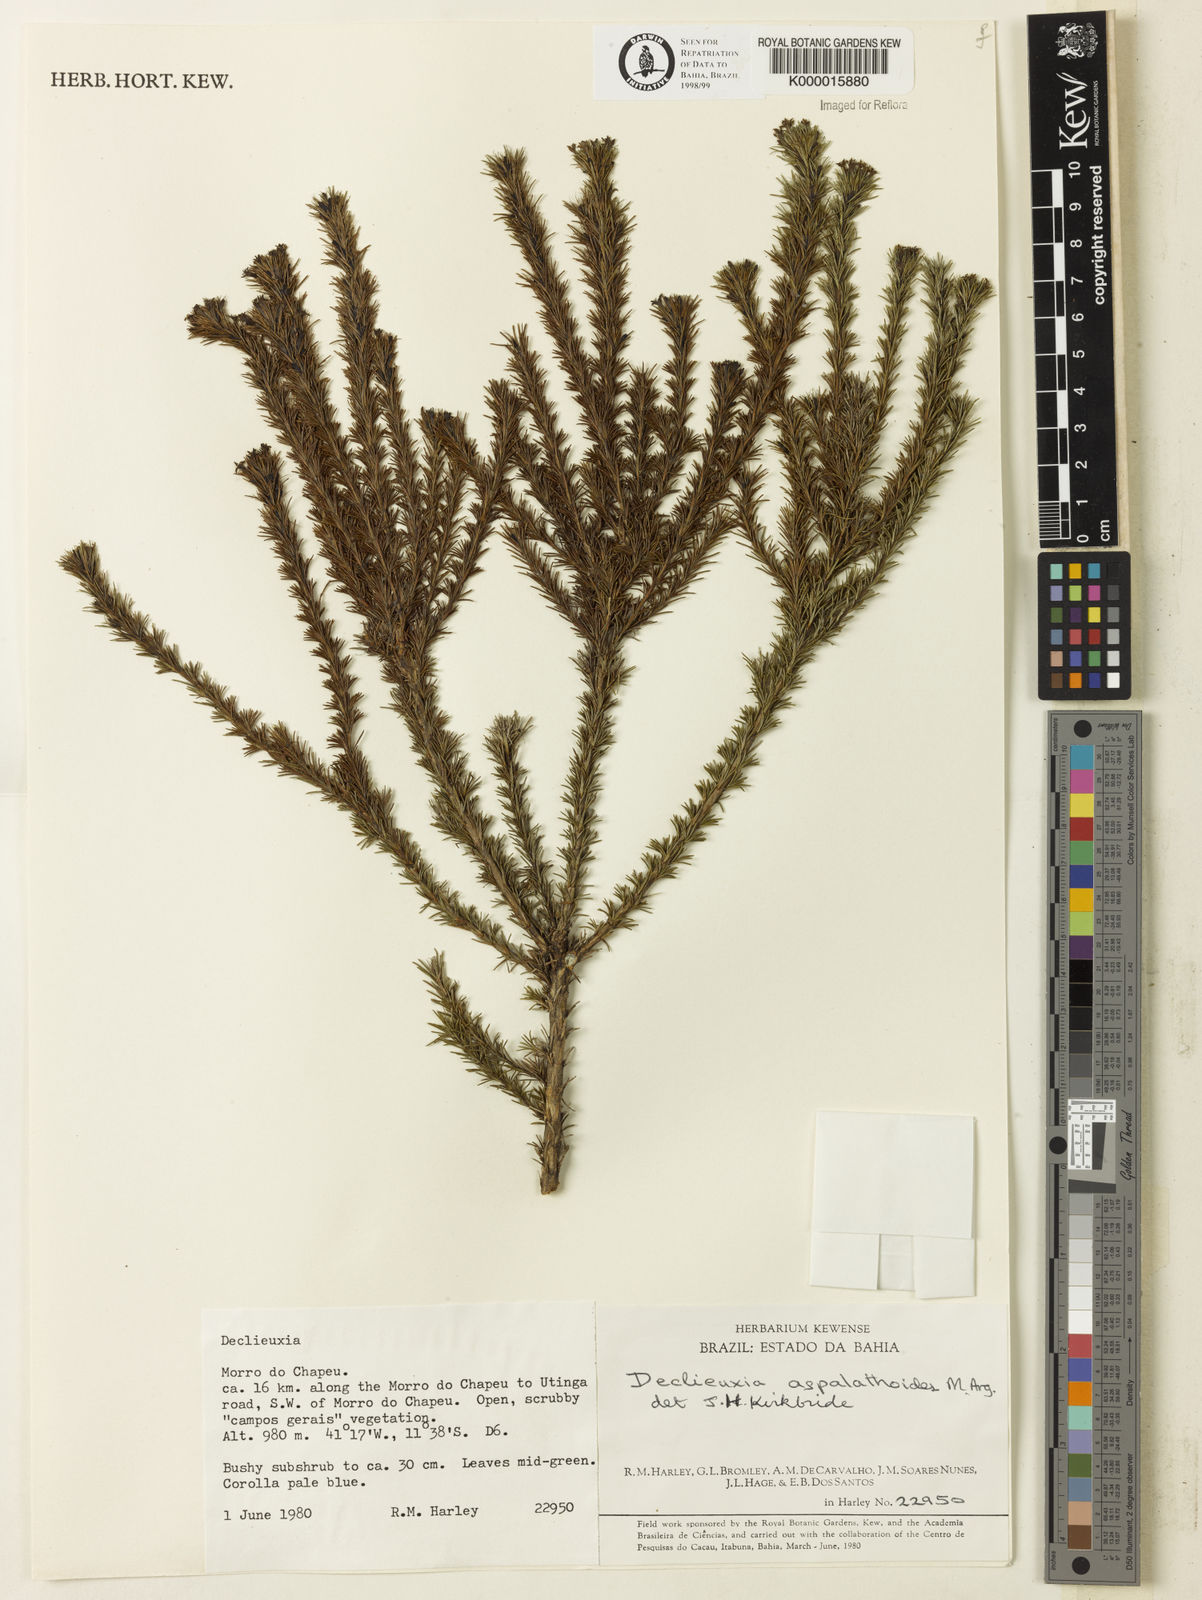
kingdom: Plantae
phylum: Tracheophyta
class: Magnoliopsida
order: Gentianales
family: Rubiaceae
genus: Declieuxia
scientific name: Declieuxia aspalathoides
